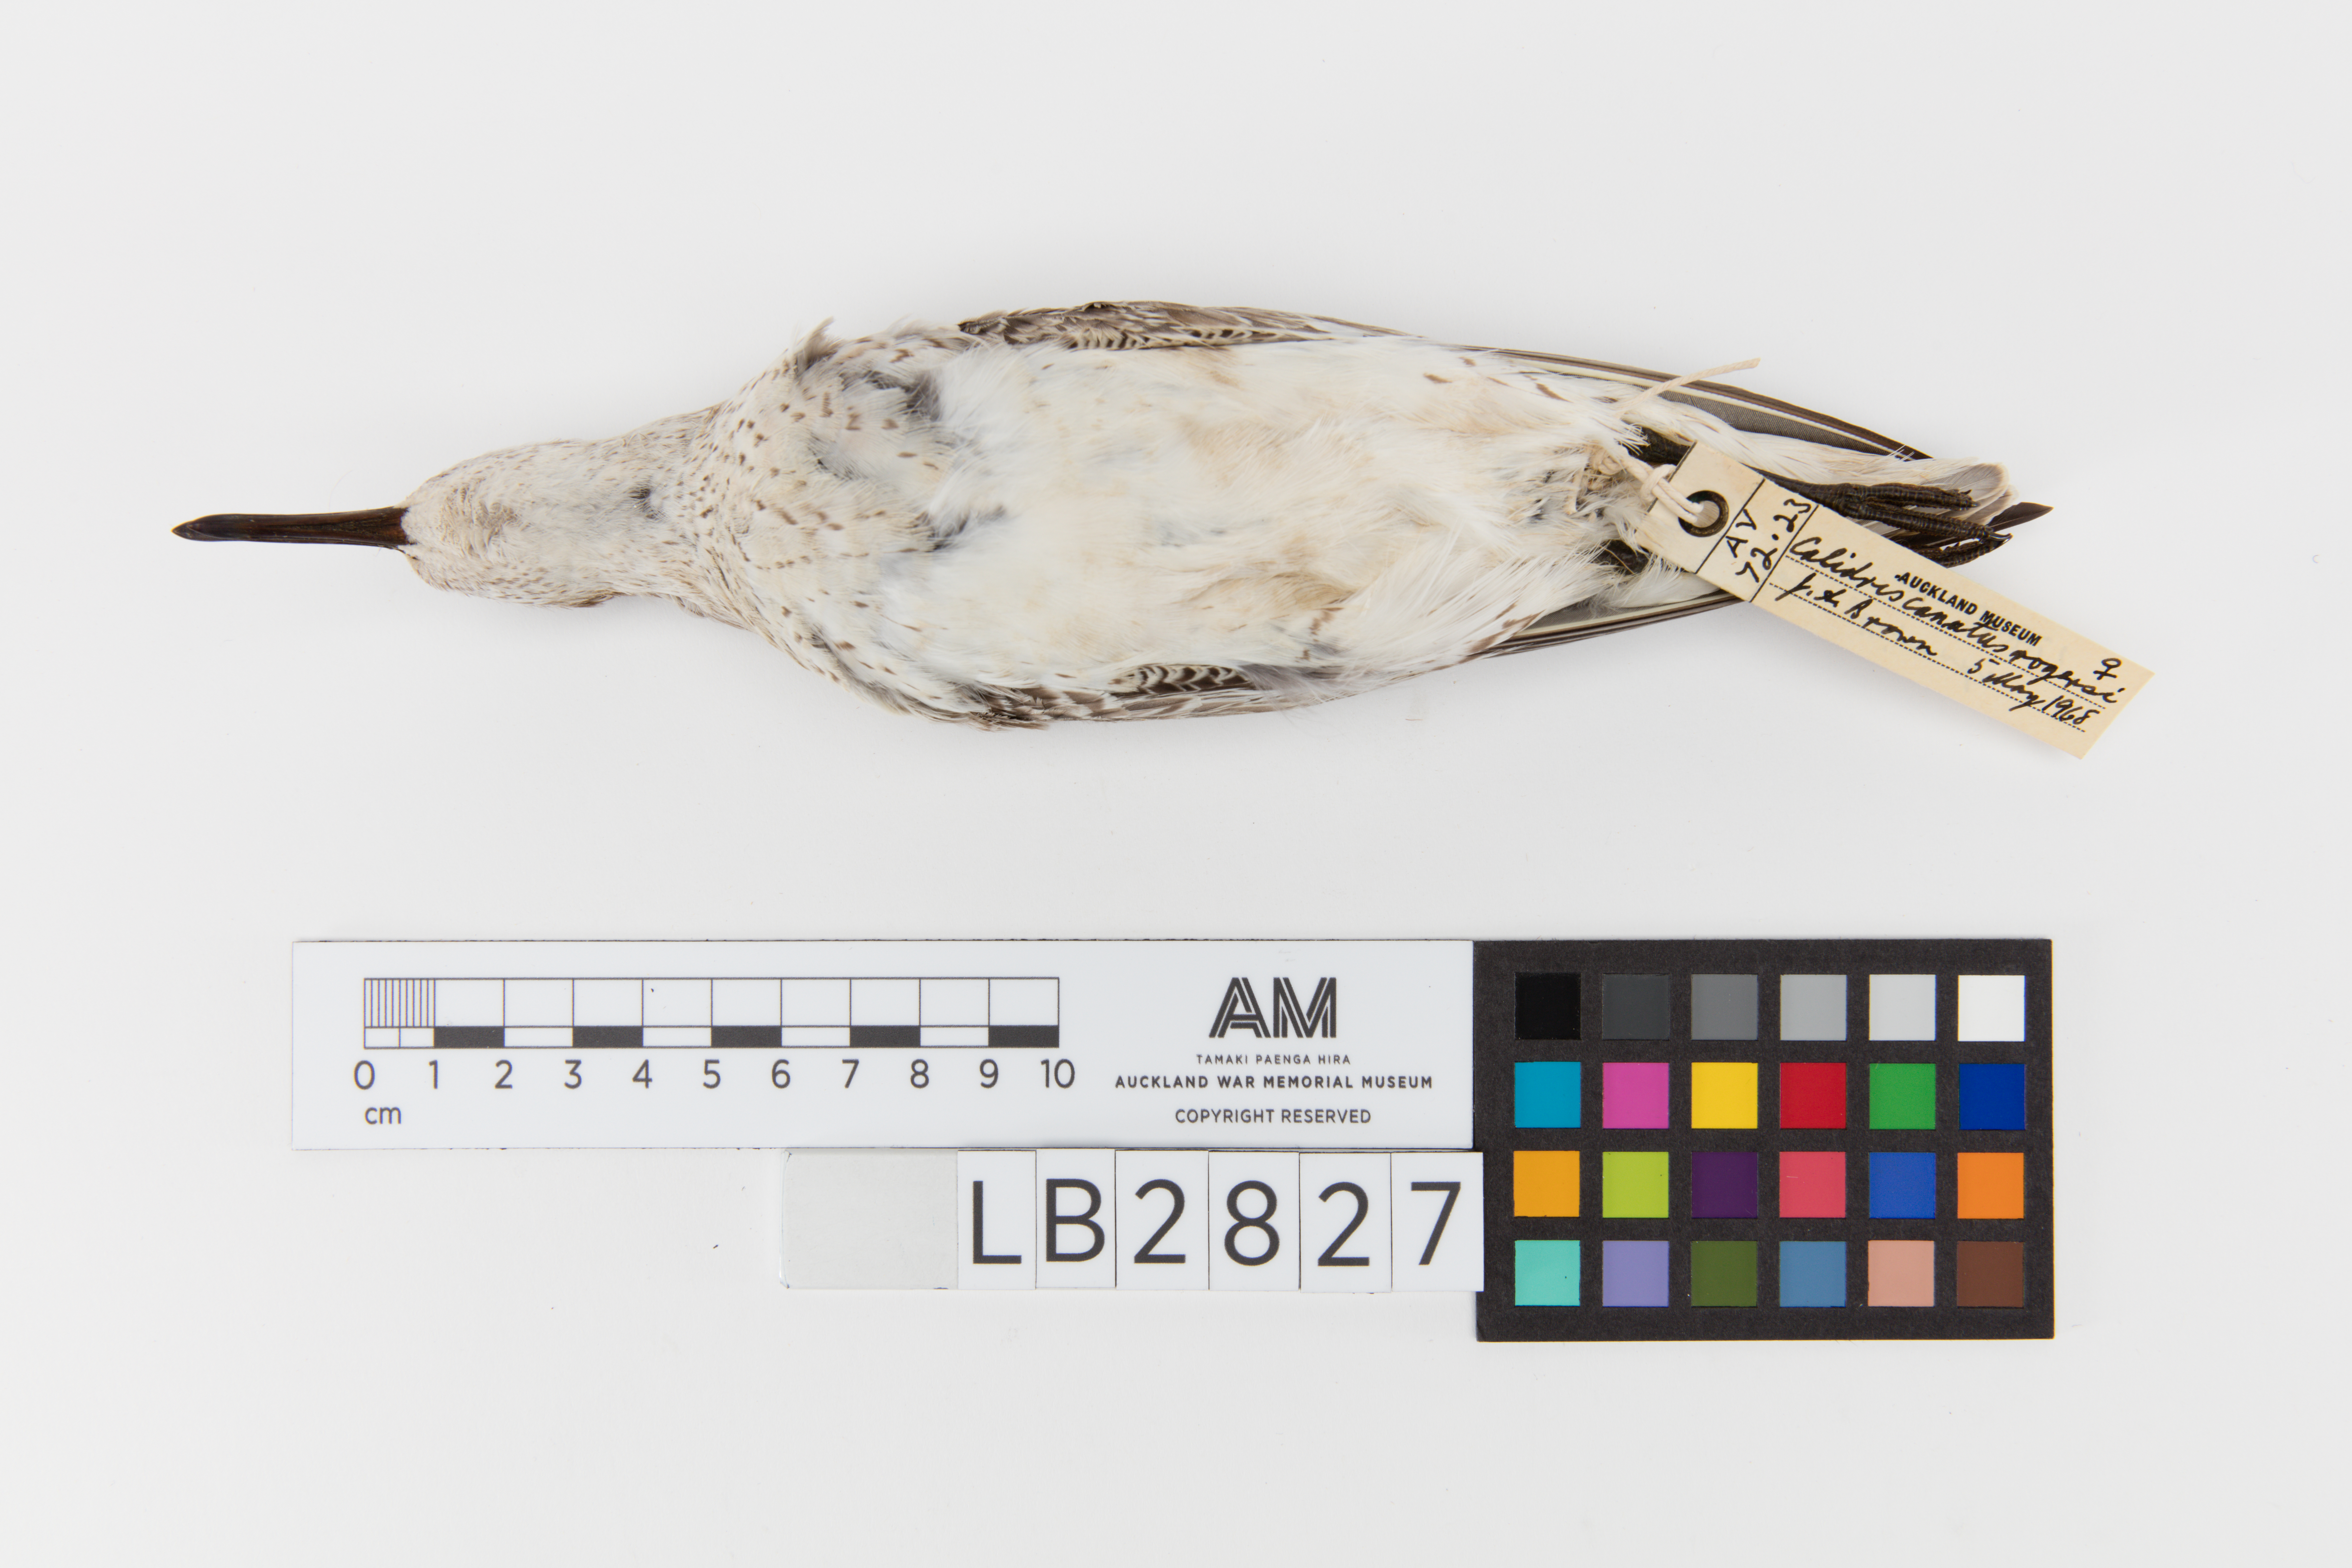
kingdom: Animalia
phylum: Chordata
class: Aves
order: Charadriiformes
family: Scolopacidae
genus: Calidris
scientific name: Calidris canutus
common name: Red knot
